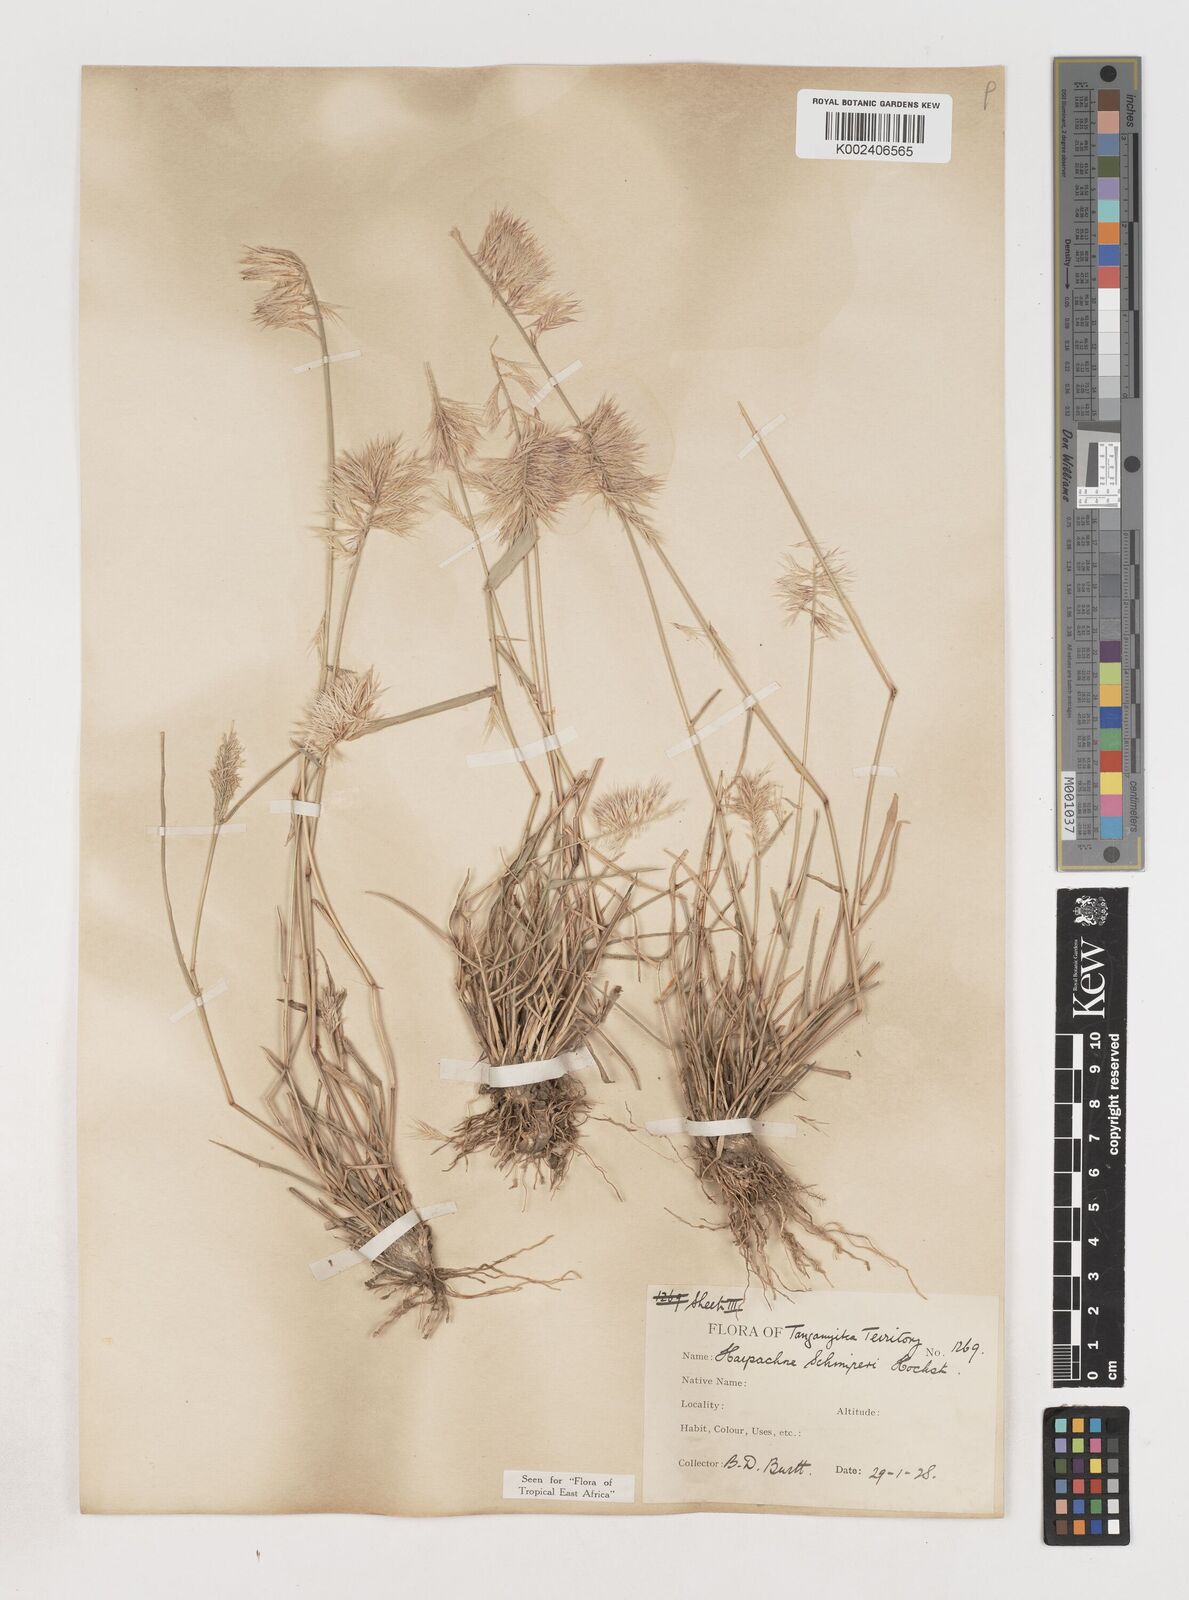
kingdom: Plantae
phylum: Tracheophyta
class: Liliopsida
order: Poales
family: Poaceae
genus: Harpachne
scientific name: Harpachne schimperi
